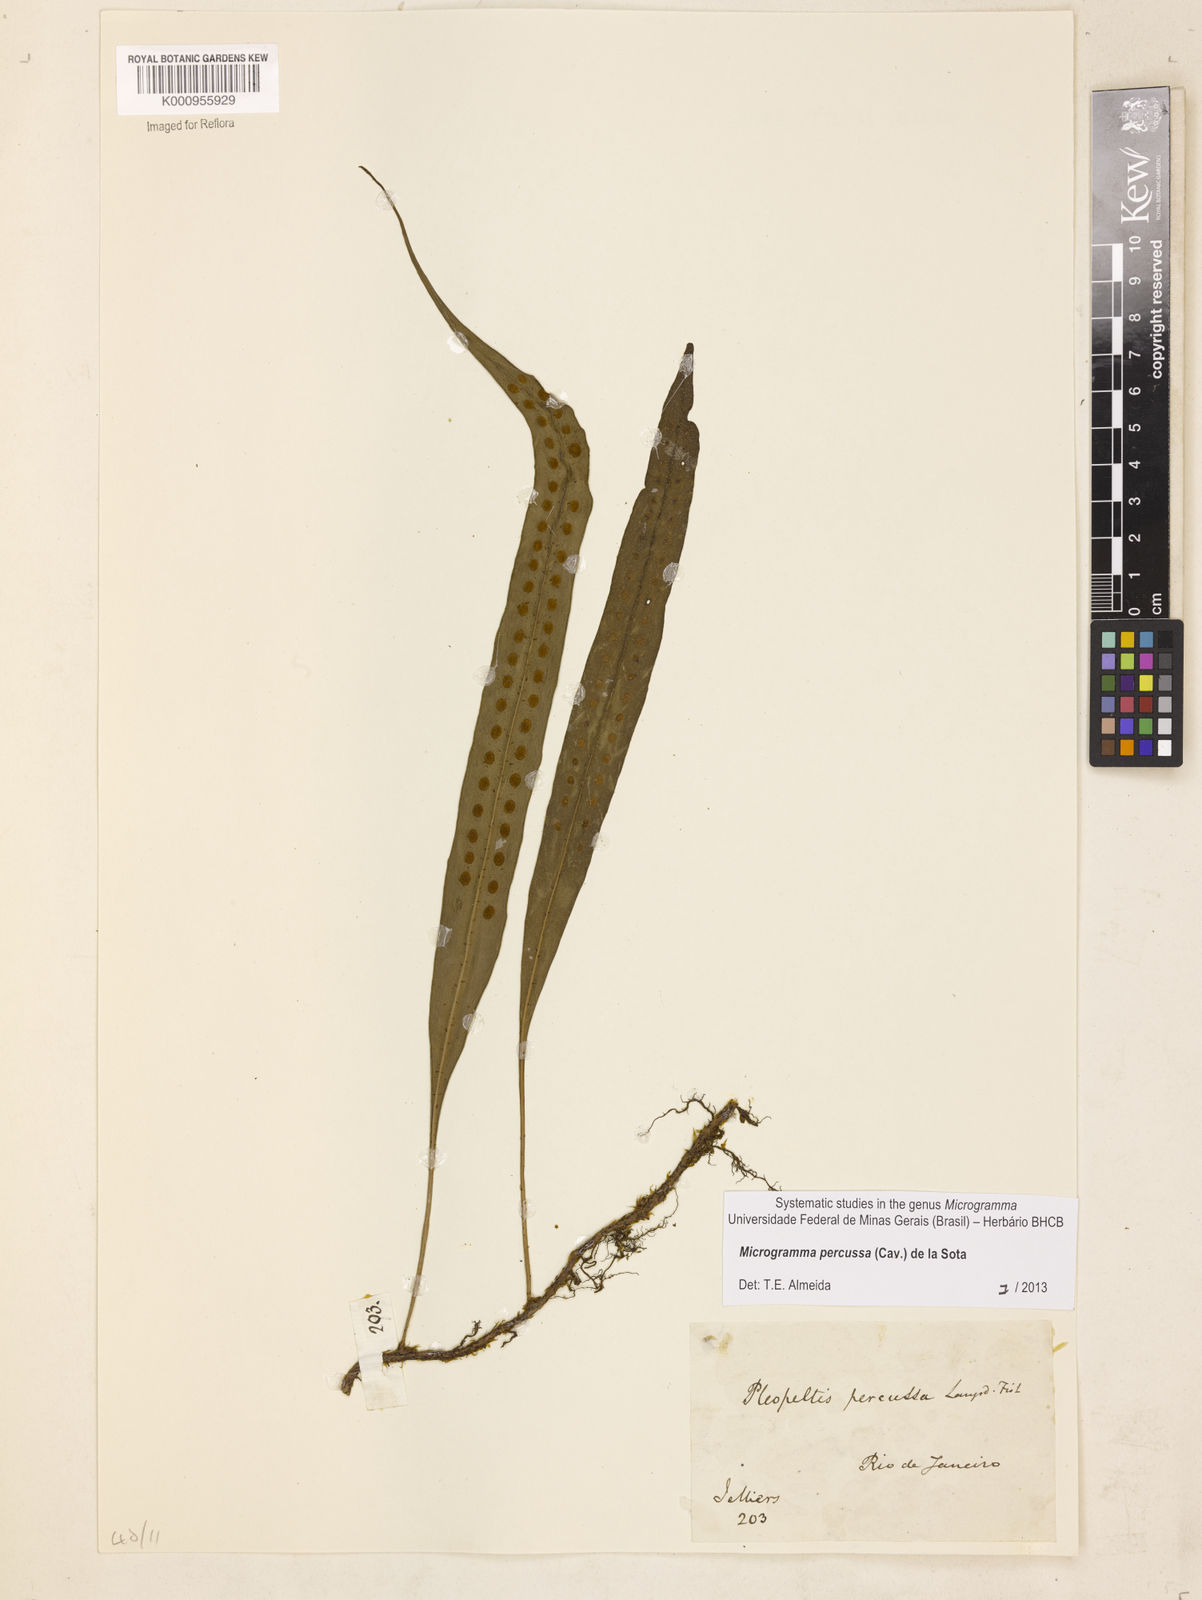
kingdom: Plantae
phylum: Tracheophyta
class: Polypodiopsida
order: Polypodiales
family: Polypodiaceae
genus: Microgramma
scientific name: Microgramma percussa
